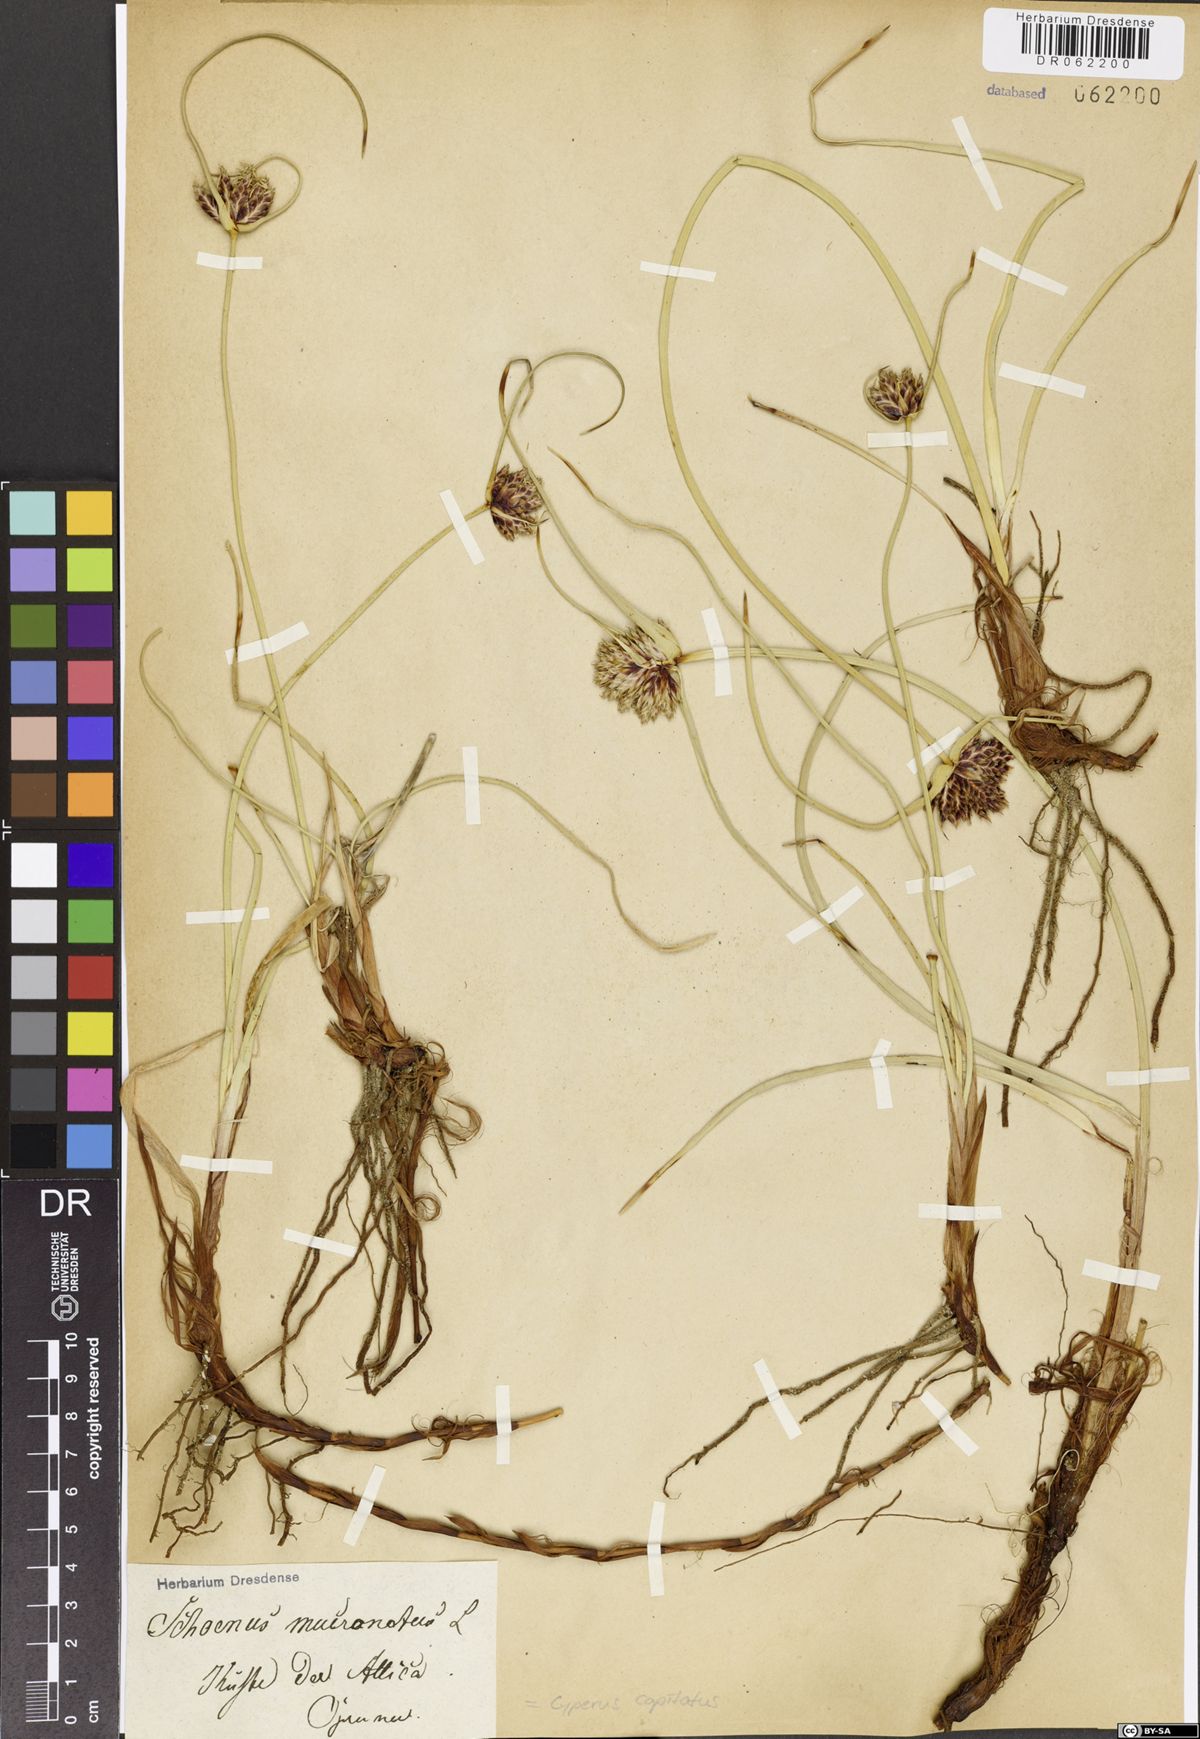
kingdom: Plantae
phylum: Tracheophyta
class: Liliopsida
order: Poales
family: Cyperaceae
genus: Cyperus
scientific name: Cyperus capitatus
